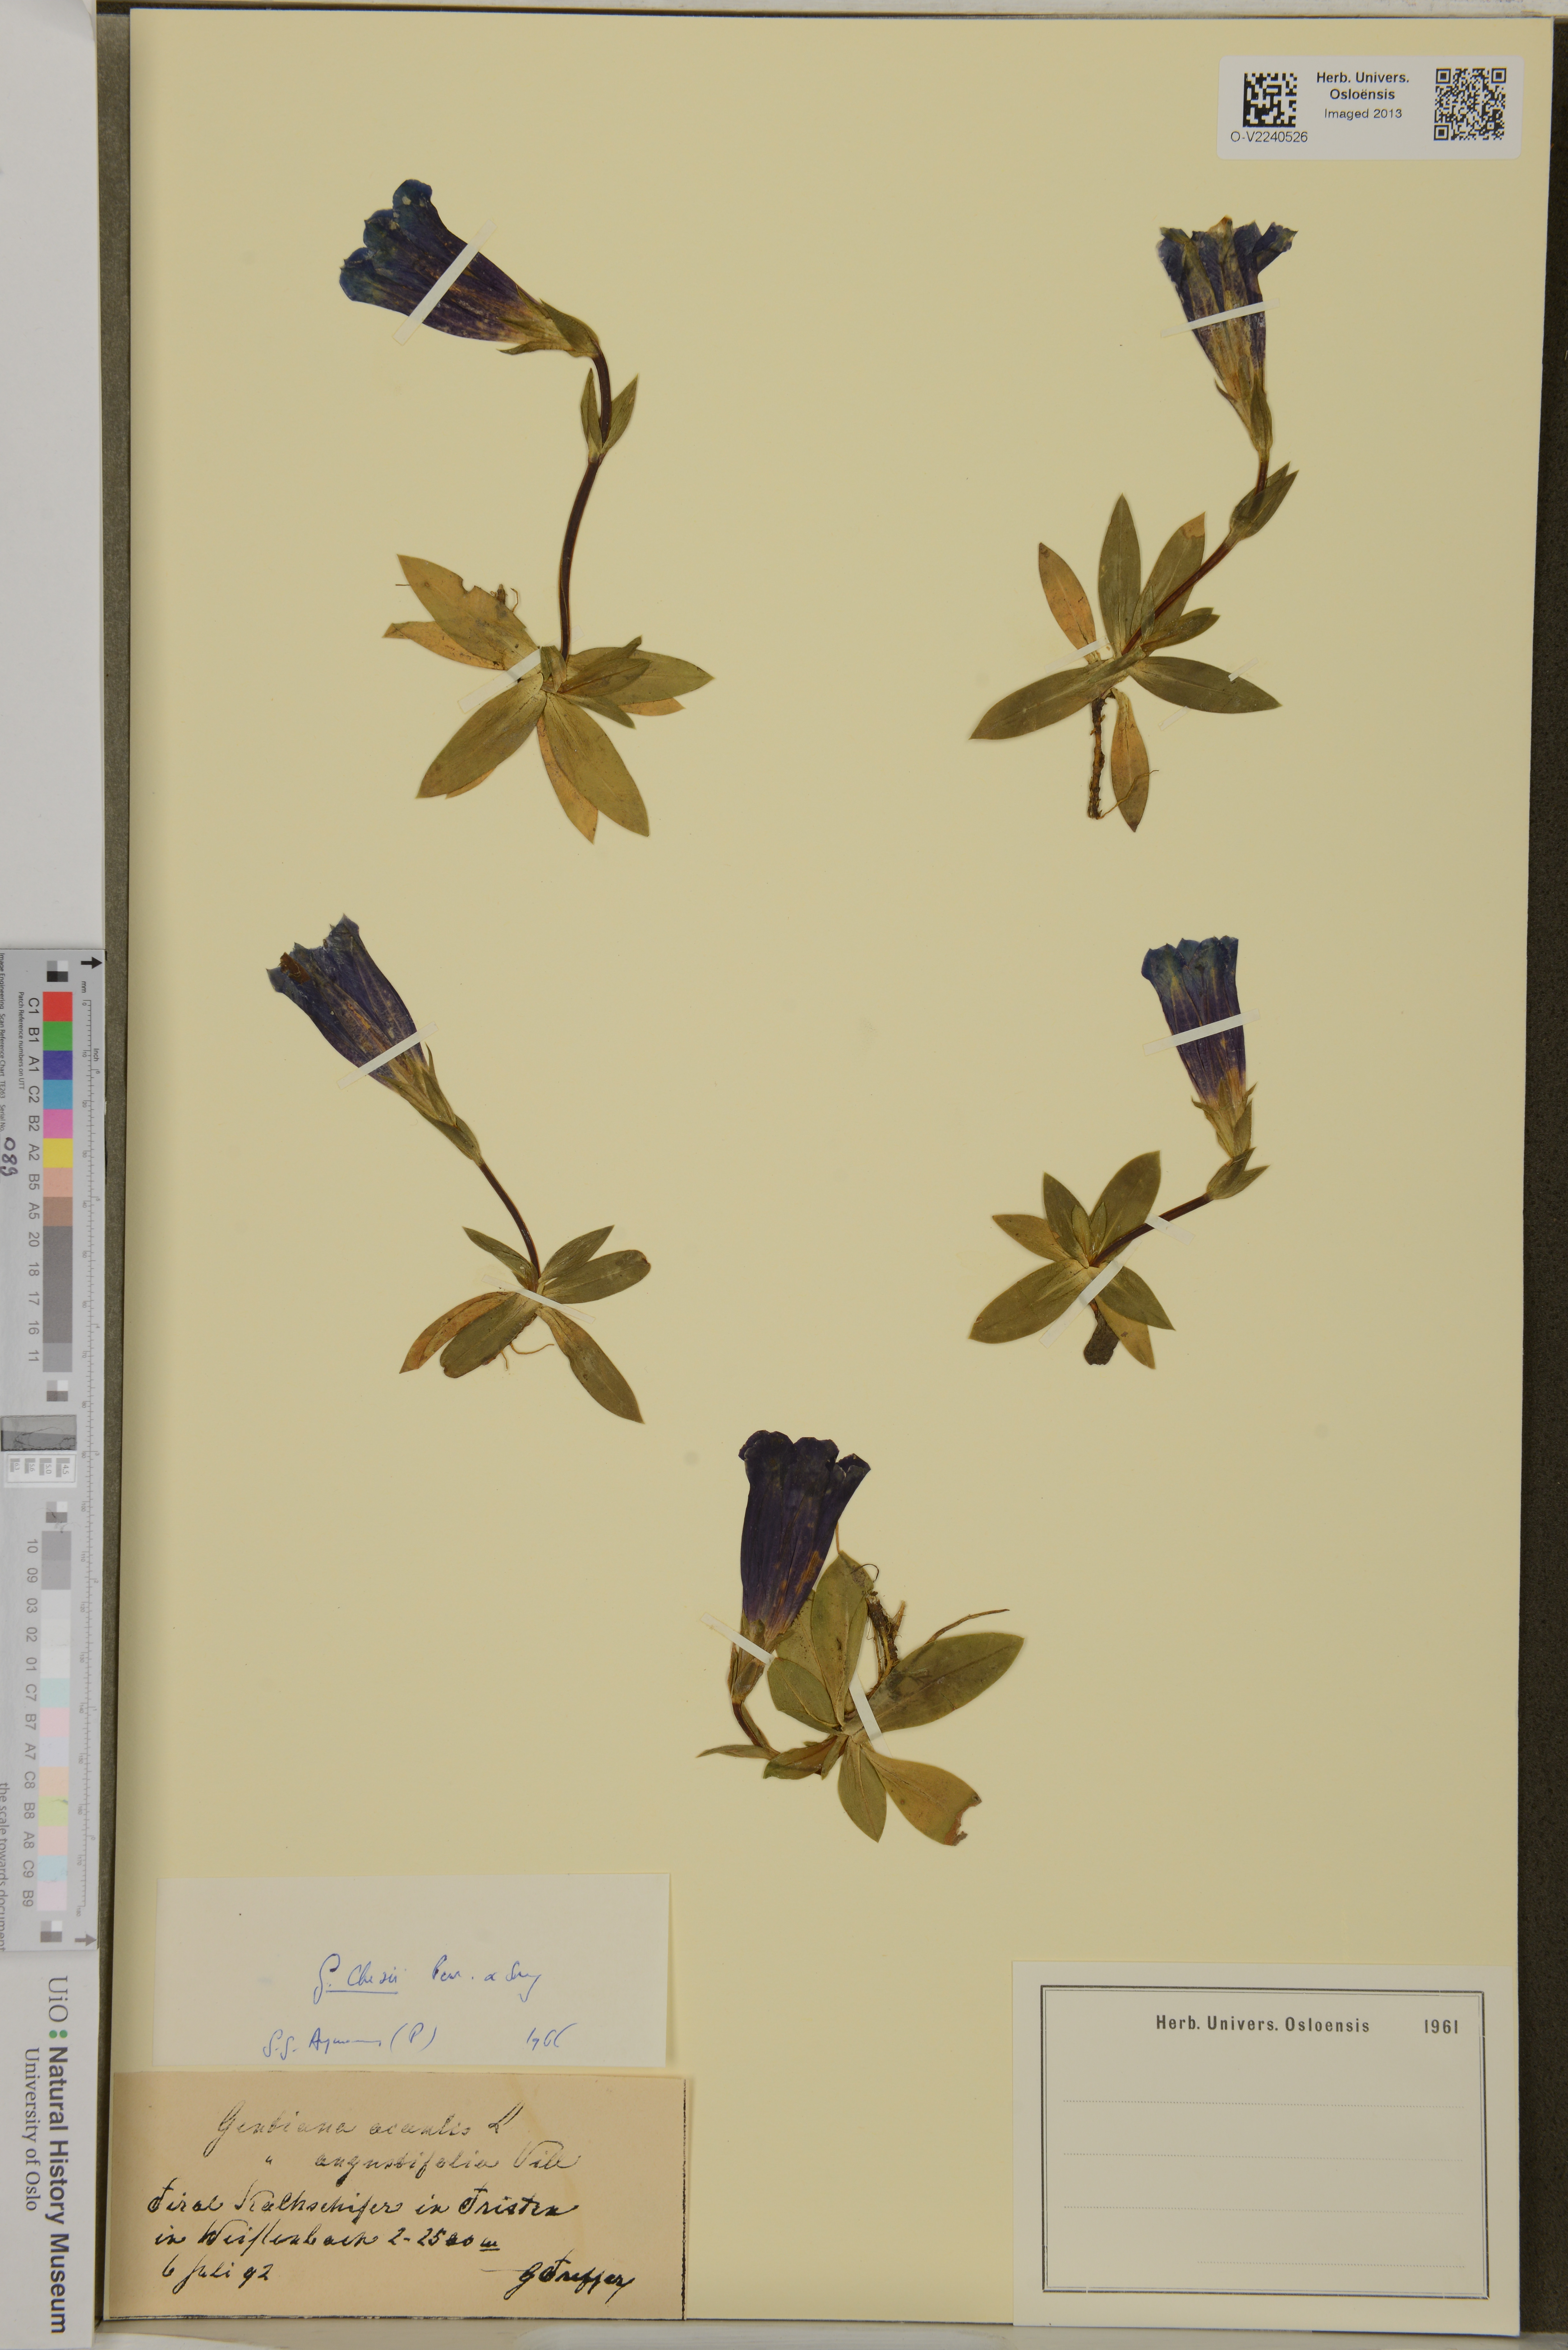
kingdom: Plantae
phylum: Tracheophyta
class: Magnoliopsida
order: Gentianales
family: Gentianaceae
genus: Gentiana
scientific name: Gentiana clusii
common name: Trumpet gentian
